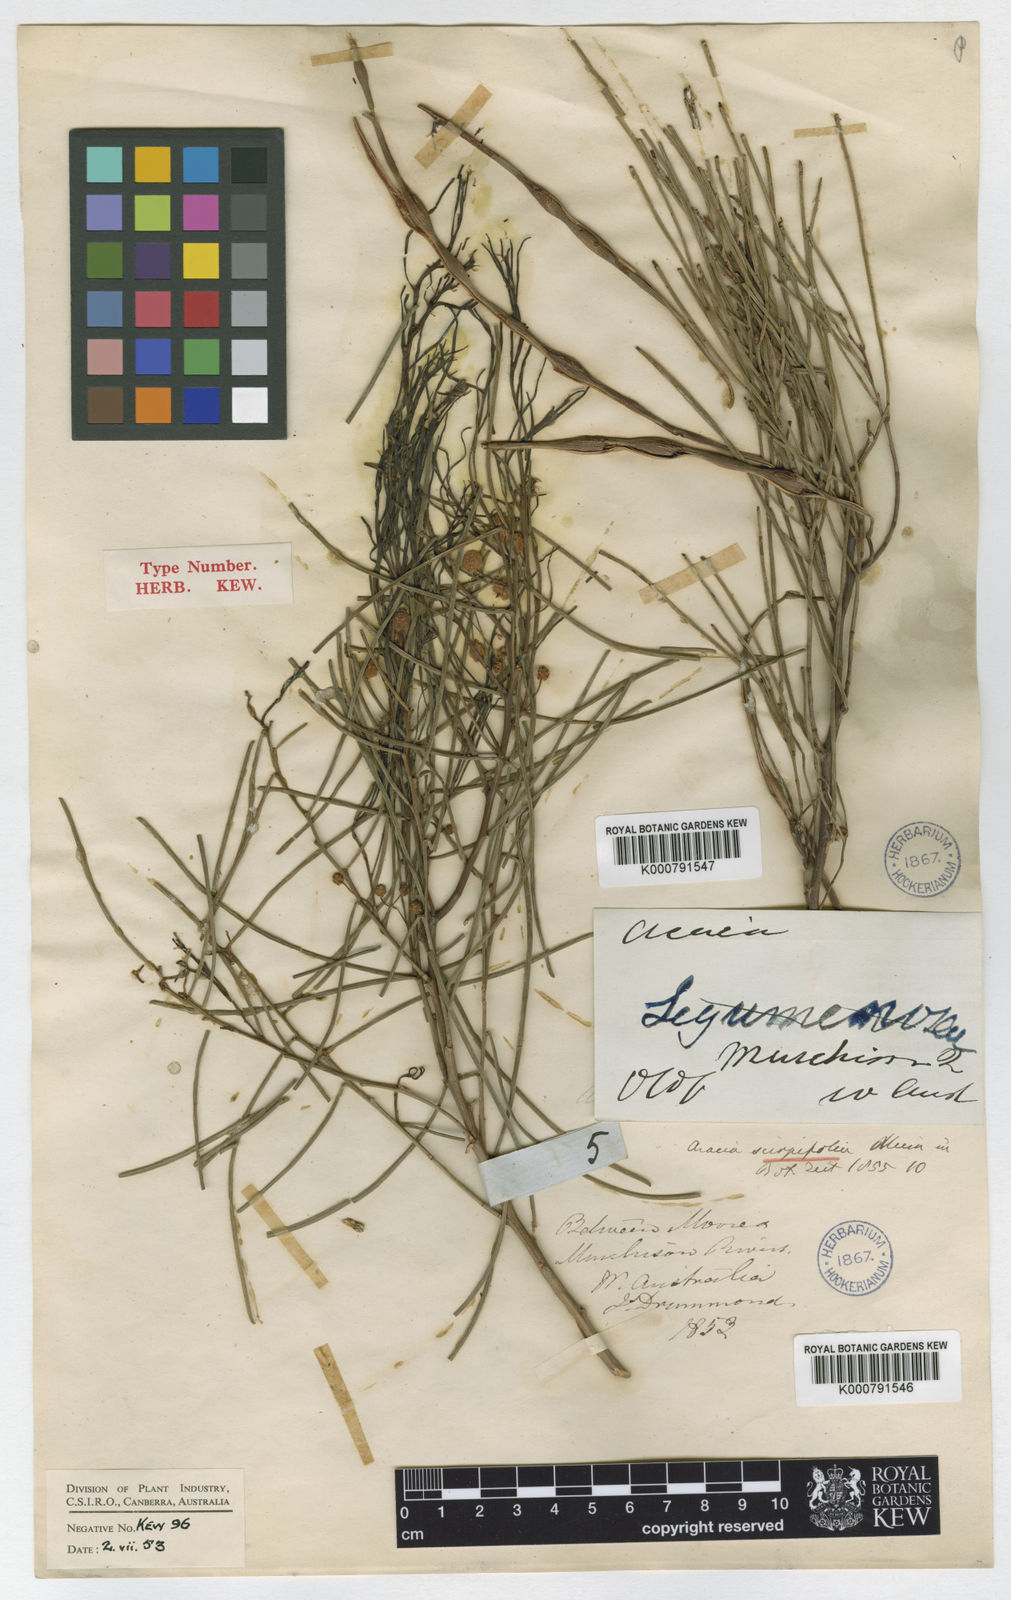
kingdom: Plantae
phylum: Tracheophyta
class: Magnoliopsida
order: Fabales
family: Fabaceae
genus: Acacia
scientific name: Acacia scirpifolia
